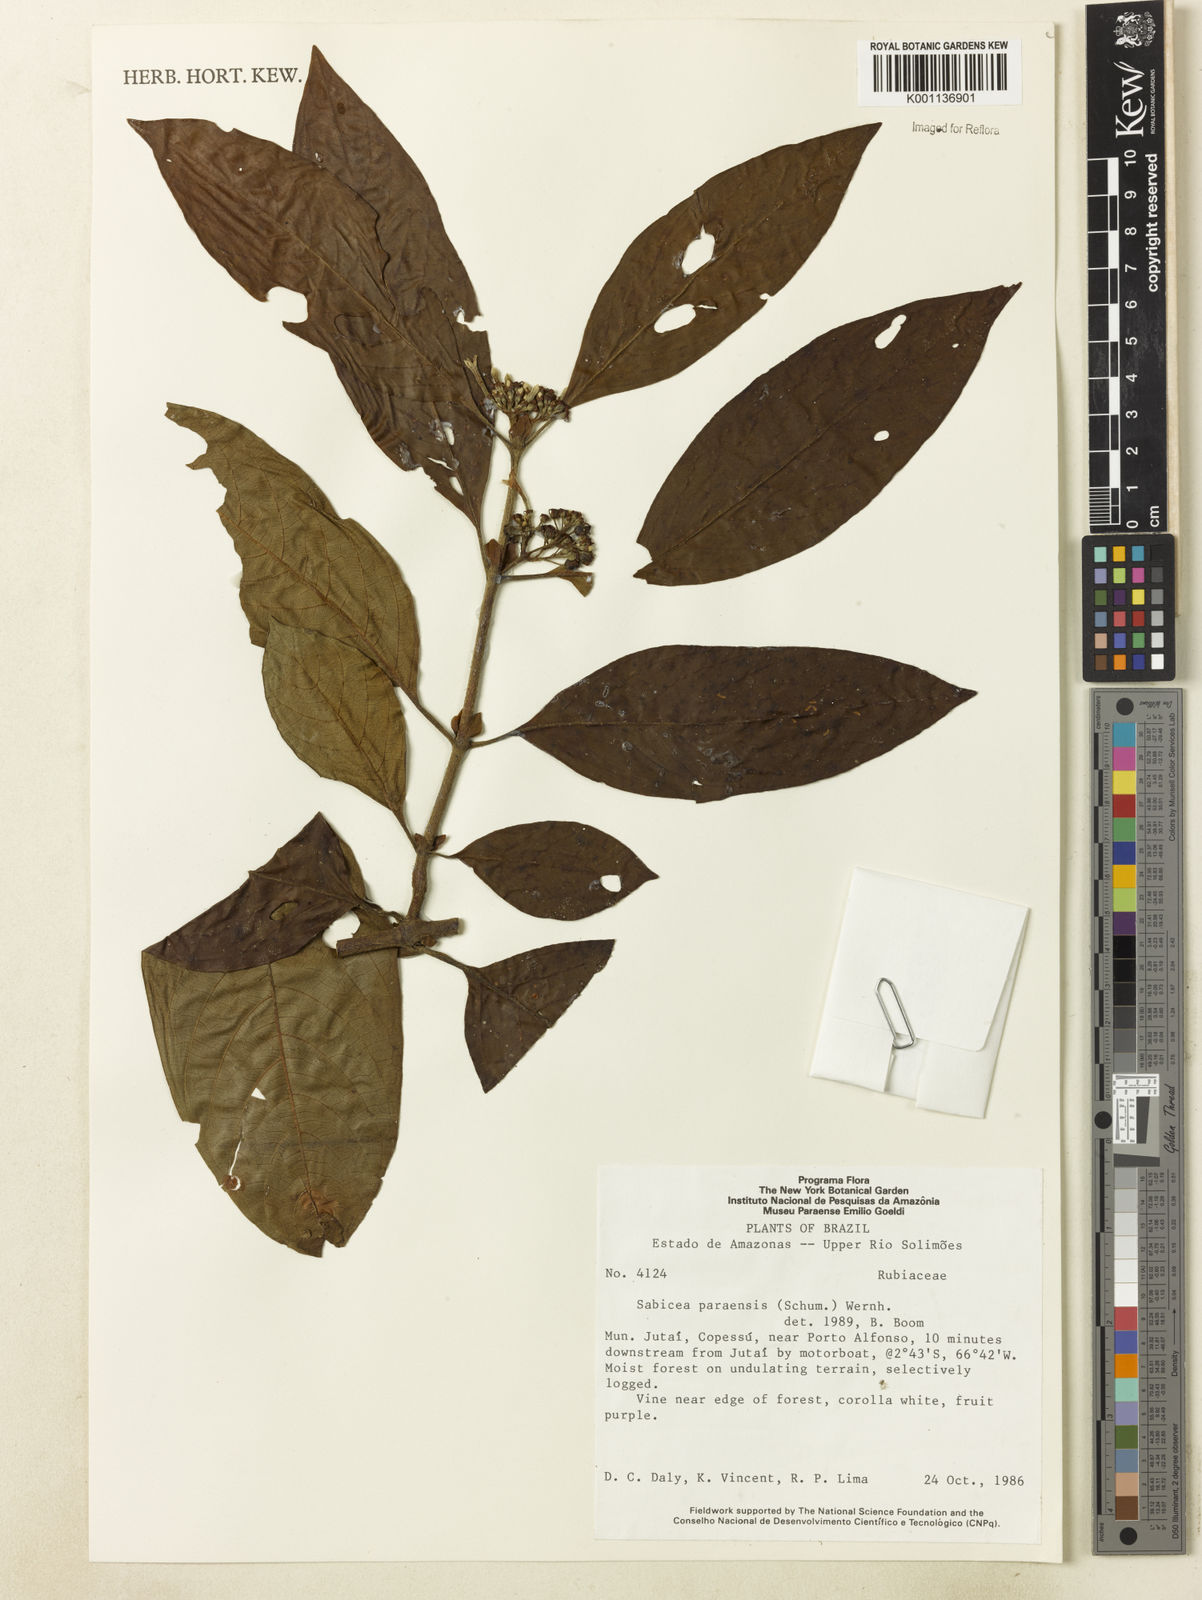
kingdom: Plantae
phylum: Tracheophyta
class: Magnoliopsida
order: Gentianales
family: Rubiaceae
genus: Sabicea
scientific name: Sabicea panamensis
